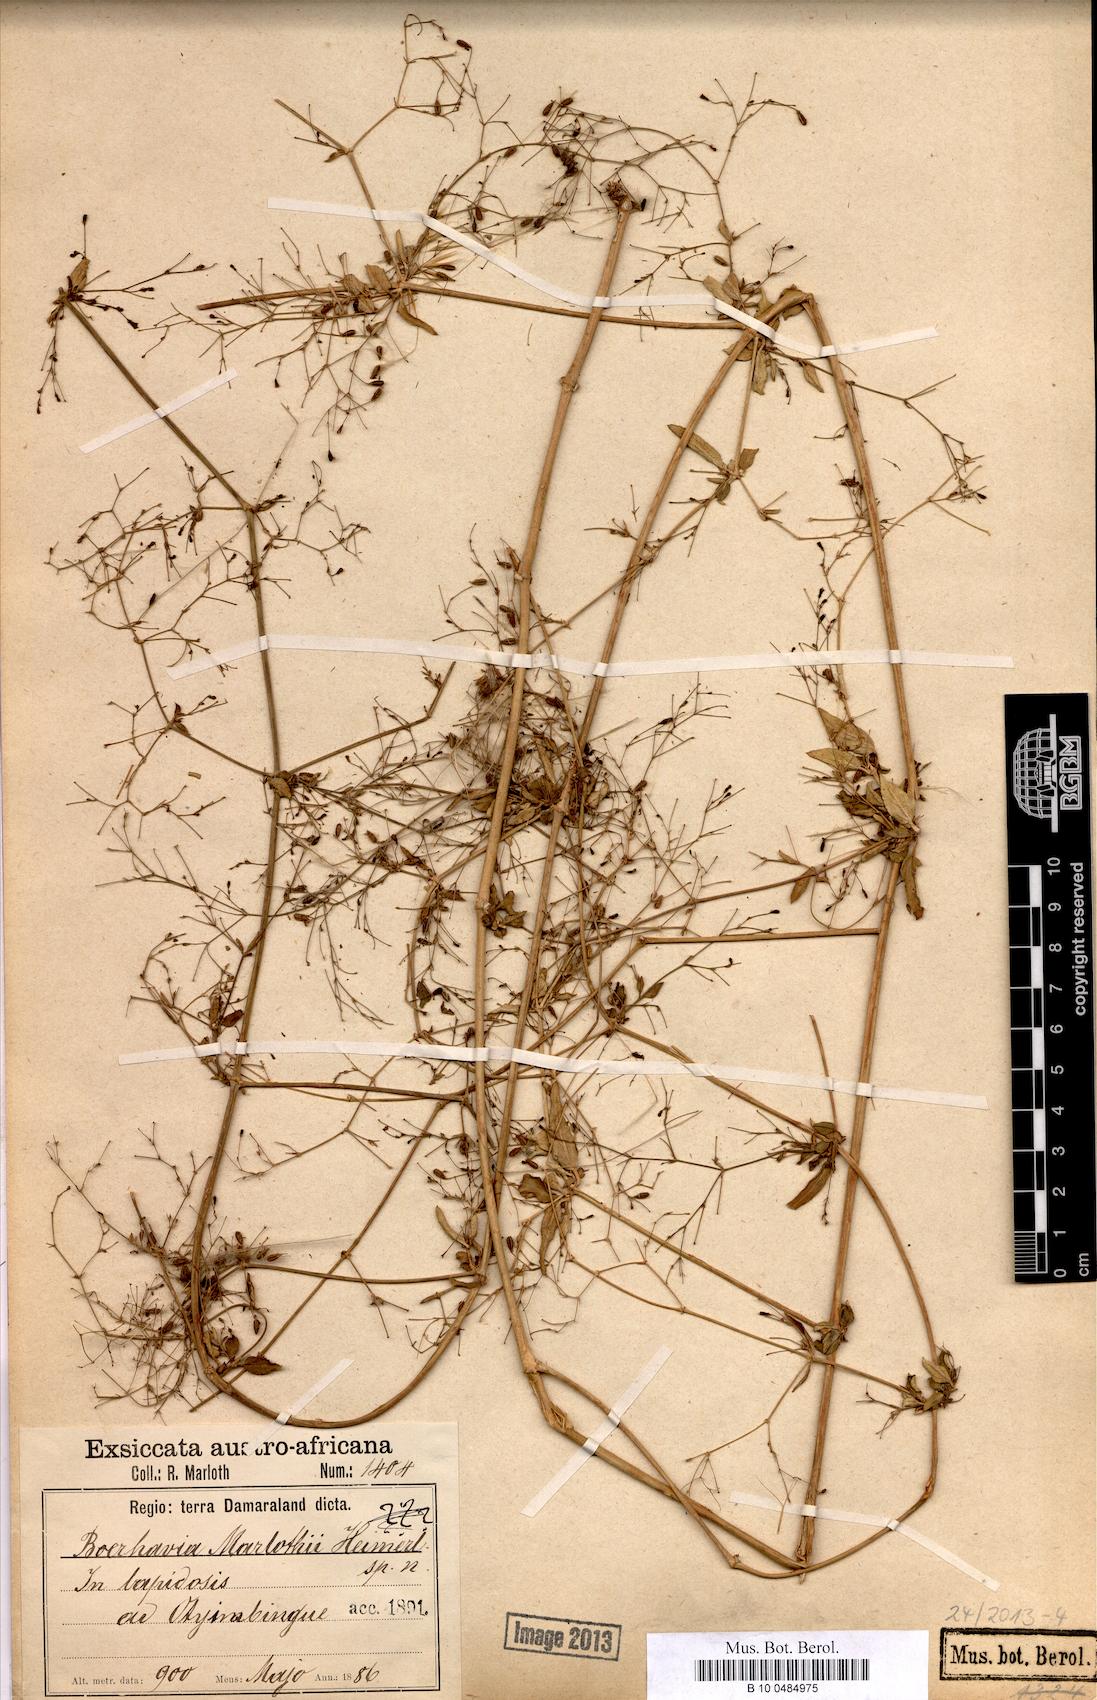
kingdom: Plantae
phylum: Tracheophyta
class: Magnoliopsida
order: Caryophyllales
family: Nyctaginaceae
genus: Boerhavia
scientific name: Boerhavia coccinea
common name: Scarlet spiderling
